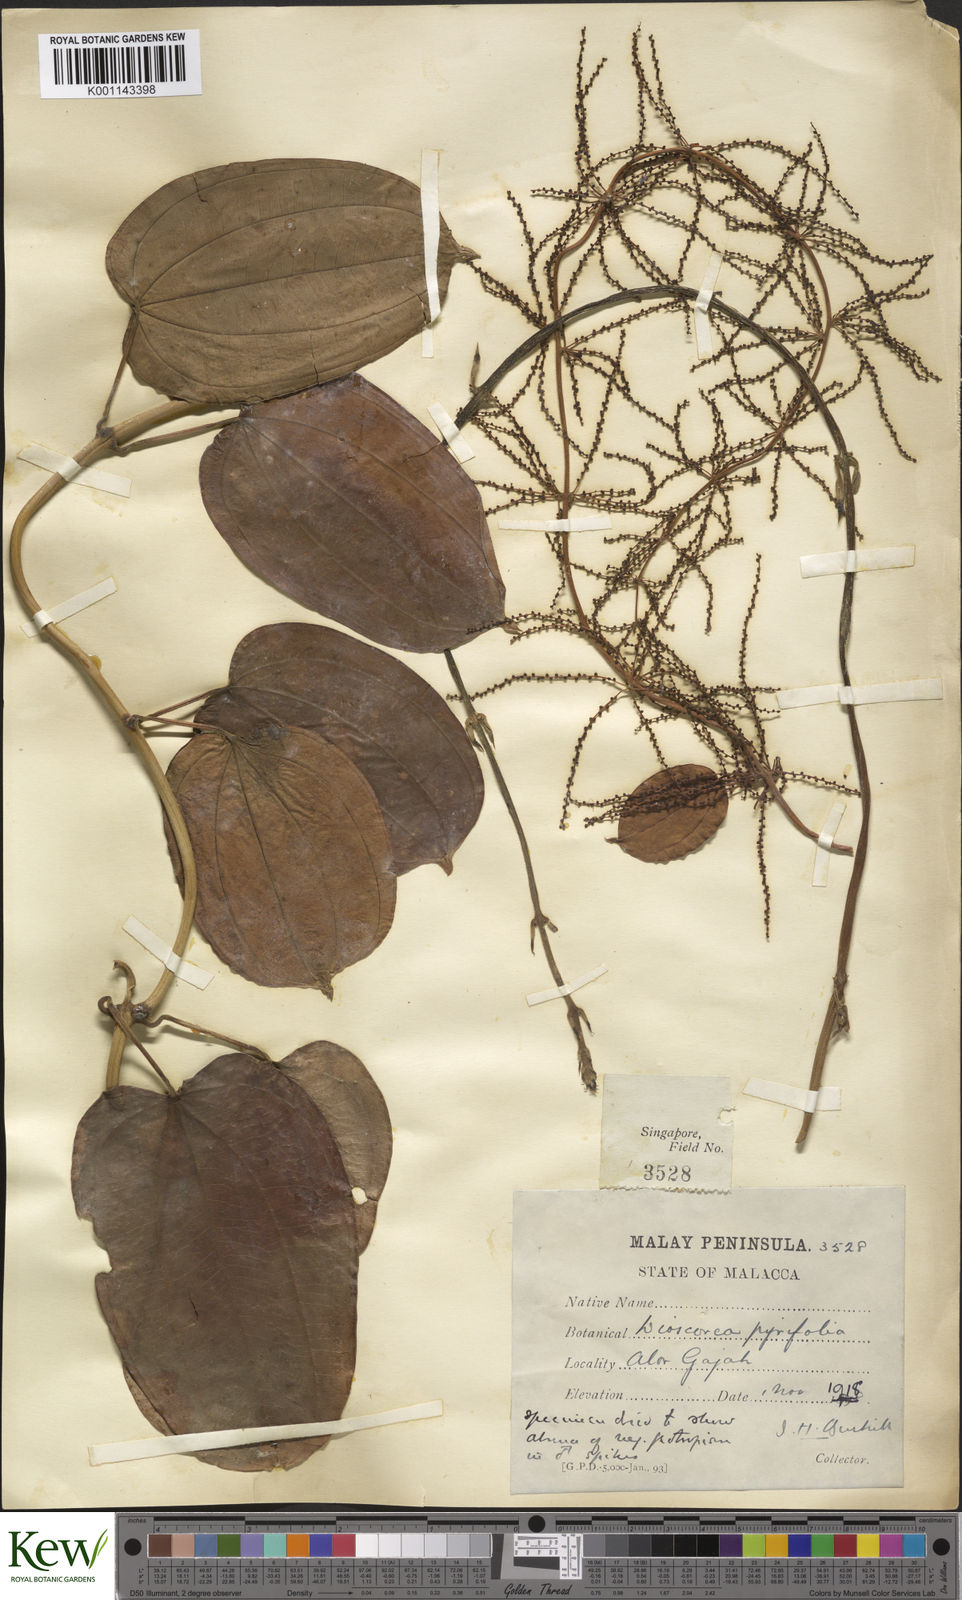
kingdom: Plantae
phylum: Tracheophyta
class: Liliopsida
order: Dioscoreales
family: Dioscoreaceae
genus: Dioscorea
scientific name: Dioscorea pyrifolia
